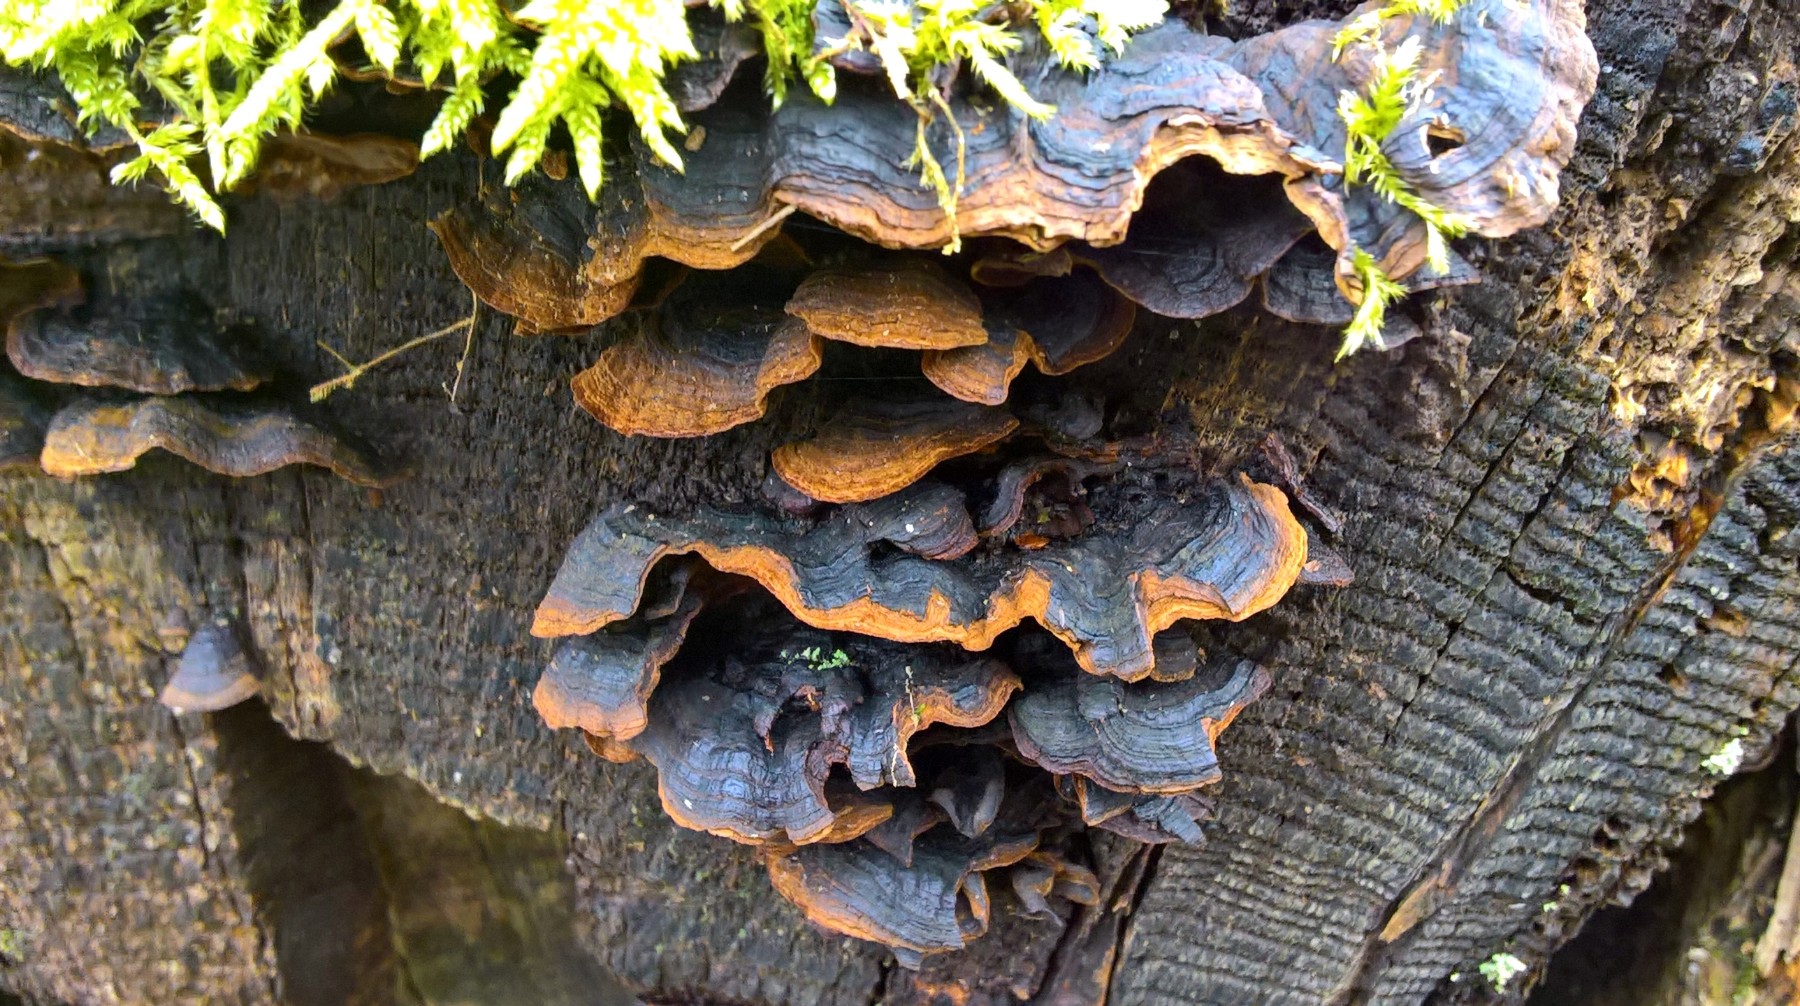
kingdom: Fungi
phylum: Basidiomycota
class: Agaricomycetes
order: Hymenochaetales
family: Hymenochaetaceae
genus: Hymenochaete
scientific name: Hymenochaete rubiginosa
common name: stiv ruslædersvamp
